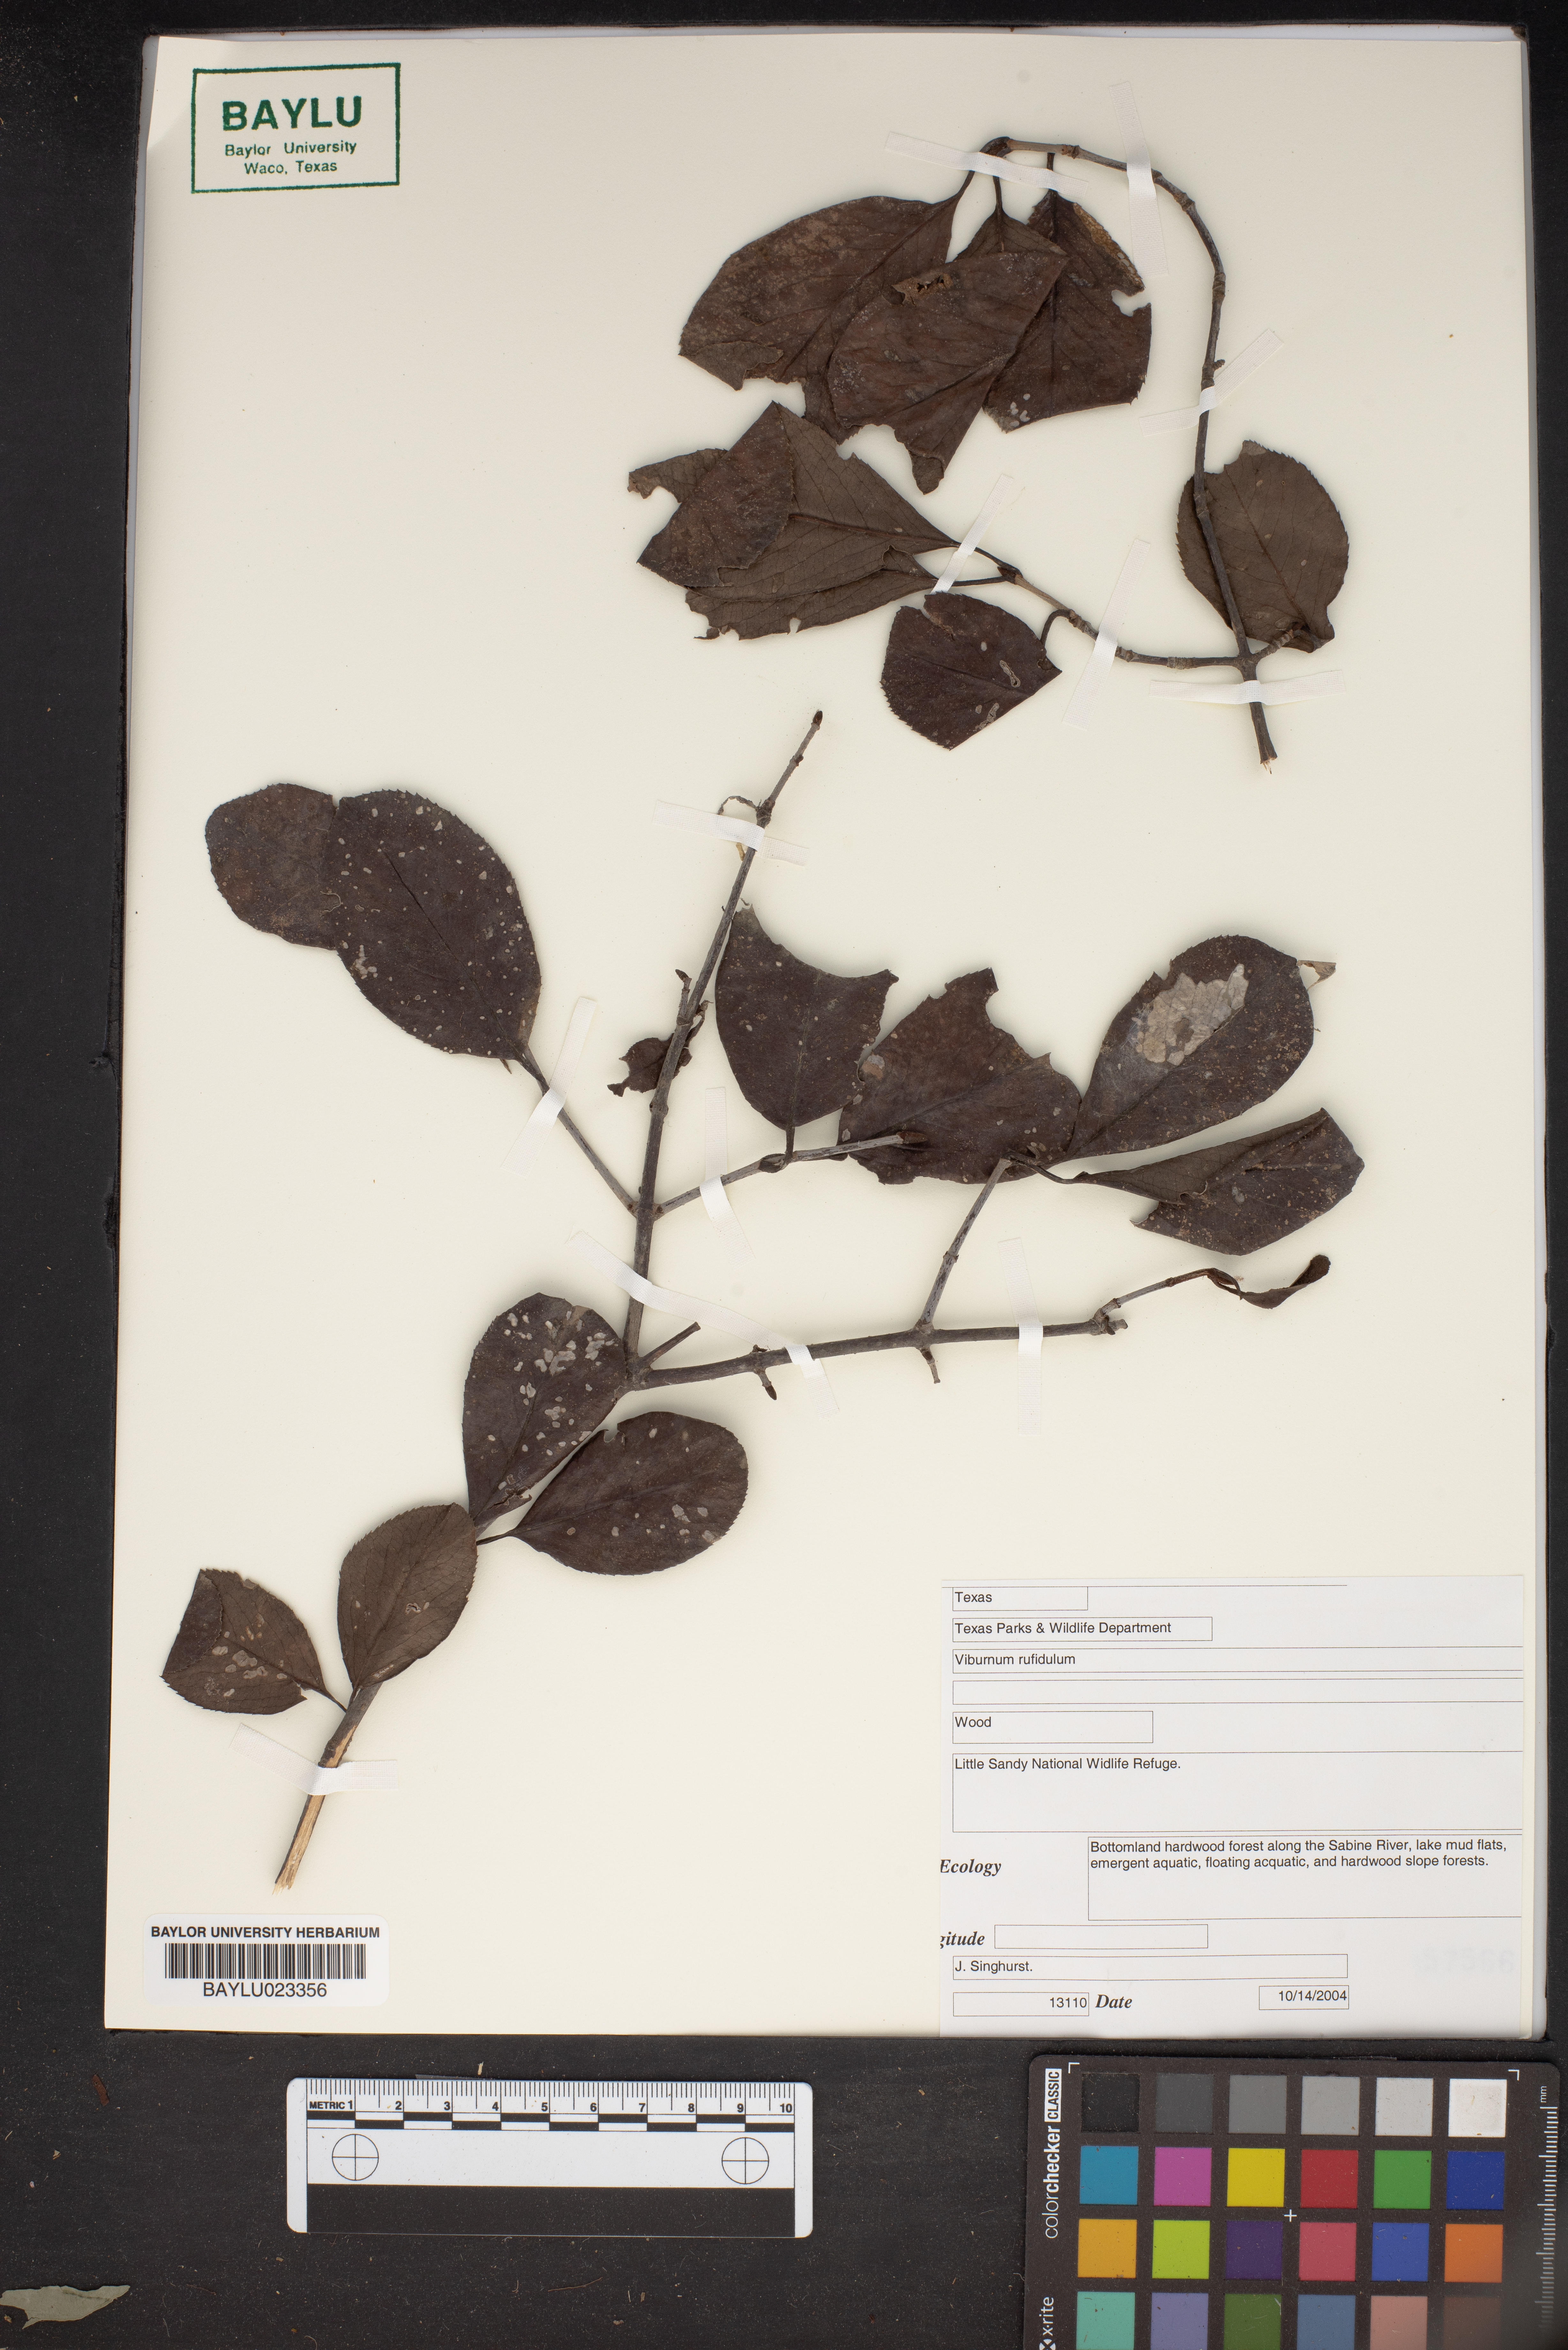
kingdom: Plantae
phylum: Tracheophyta
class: Magnoliopsida
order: Dipsacales
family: Viburnaceae
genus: Viburnum
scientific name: Viburnum rufidulum
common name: Blue haw
